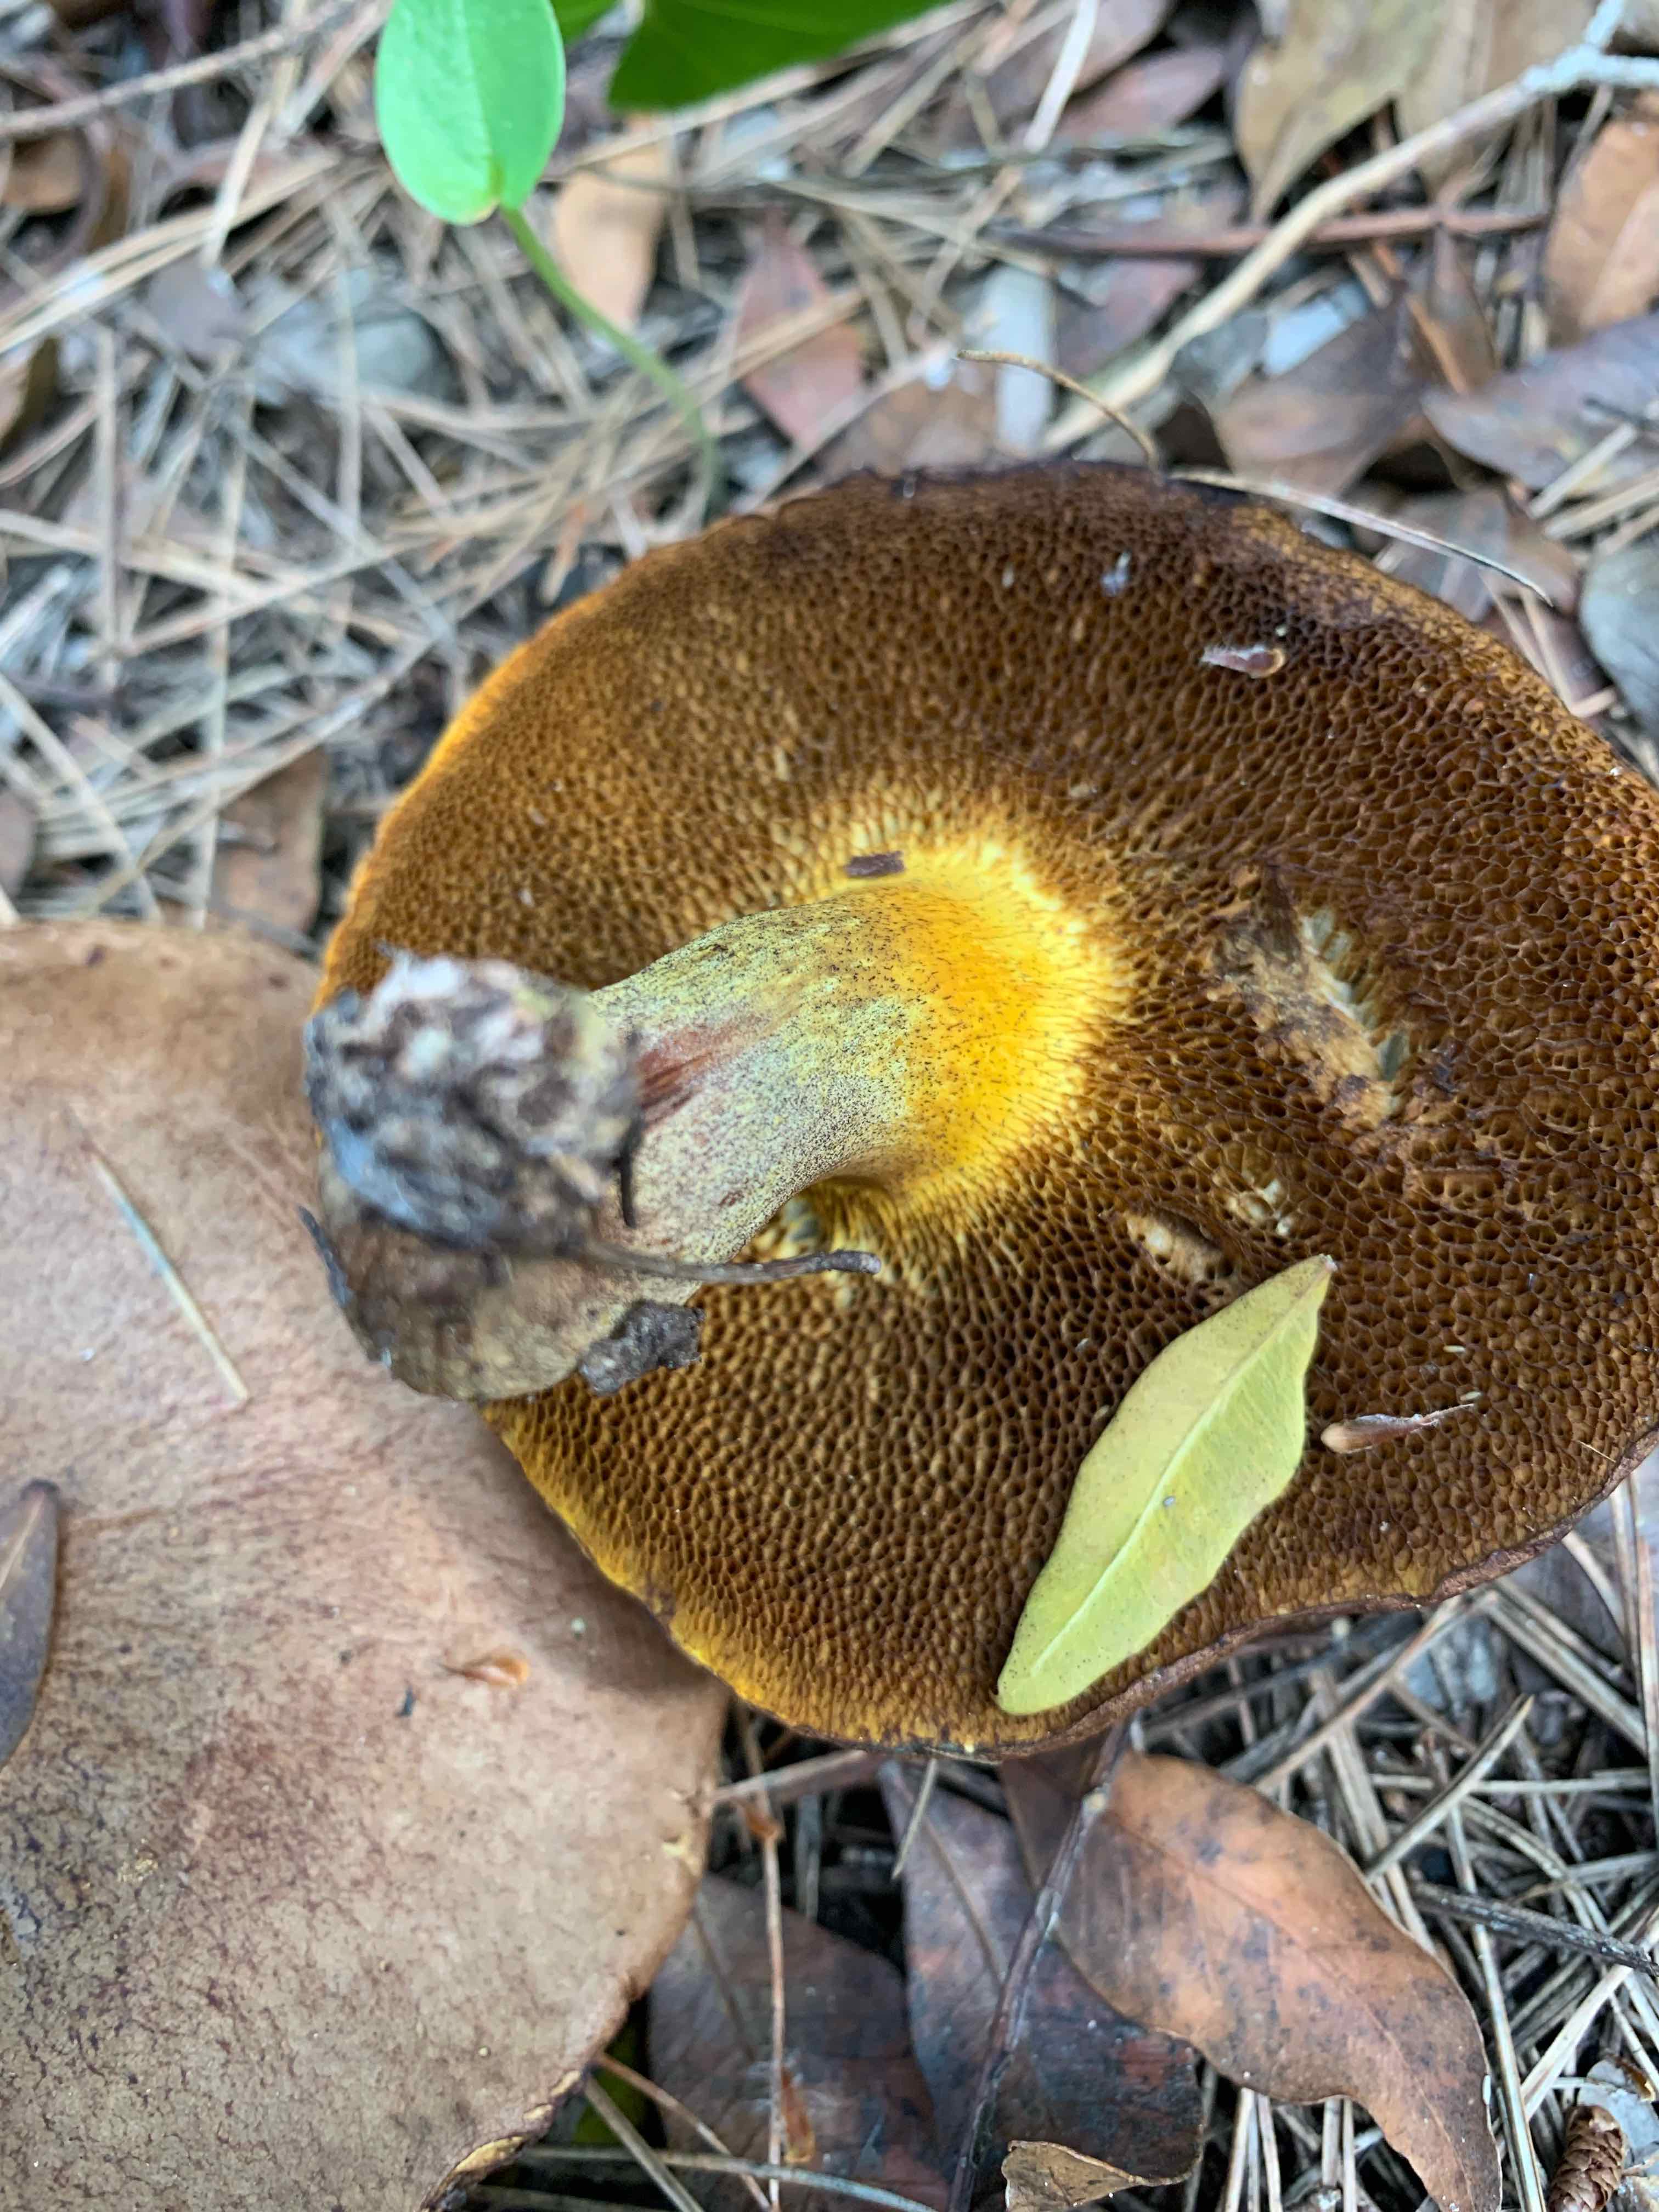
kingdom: Fungi
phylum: Basidiomycota
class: Agaricomycetes
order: Boletales
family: Suillaceae
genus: Suillus
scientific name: Suillus
